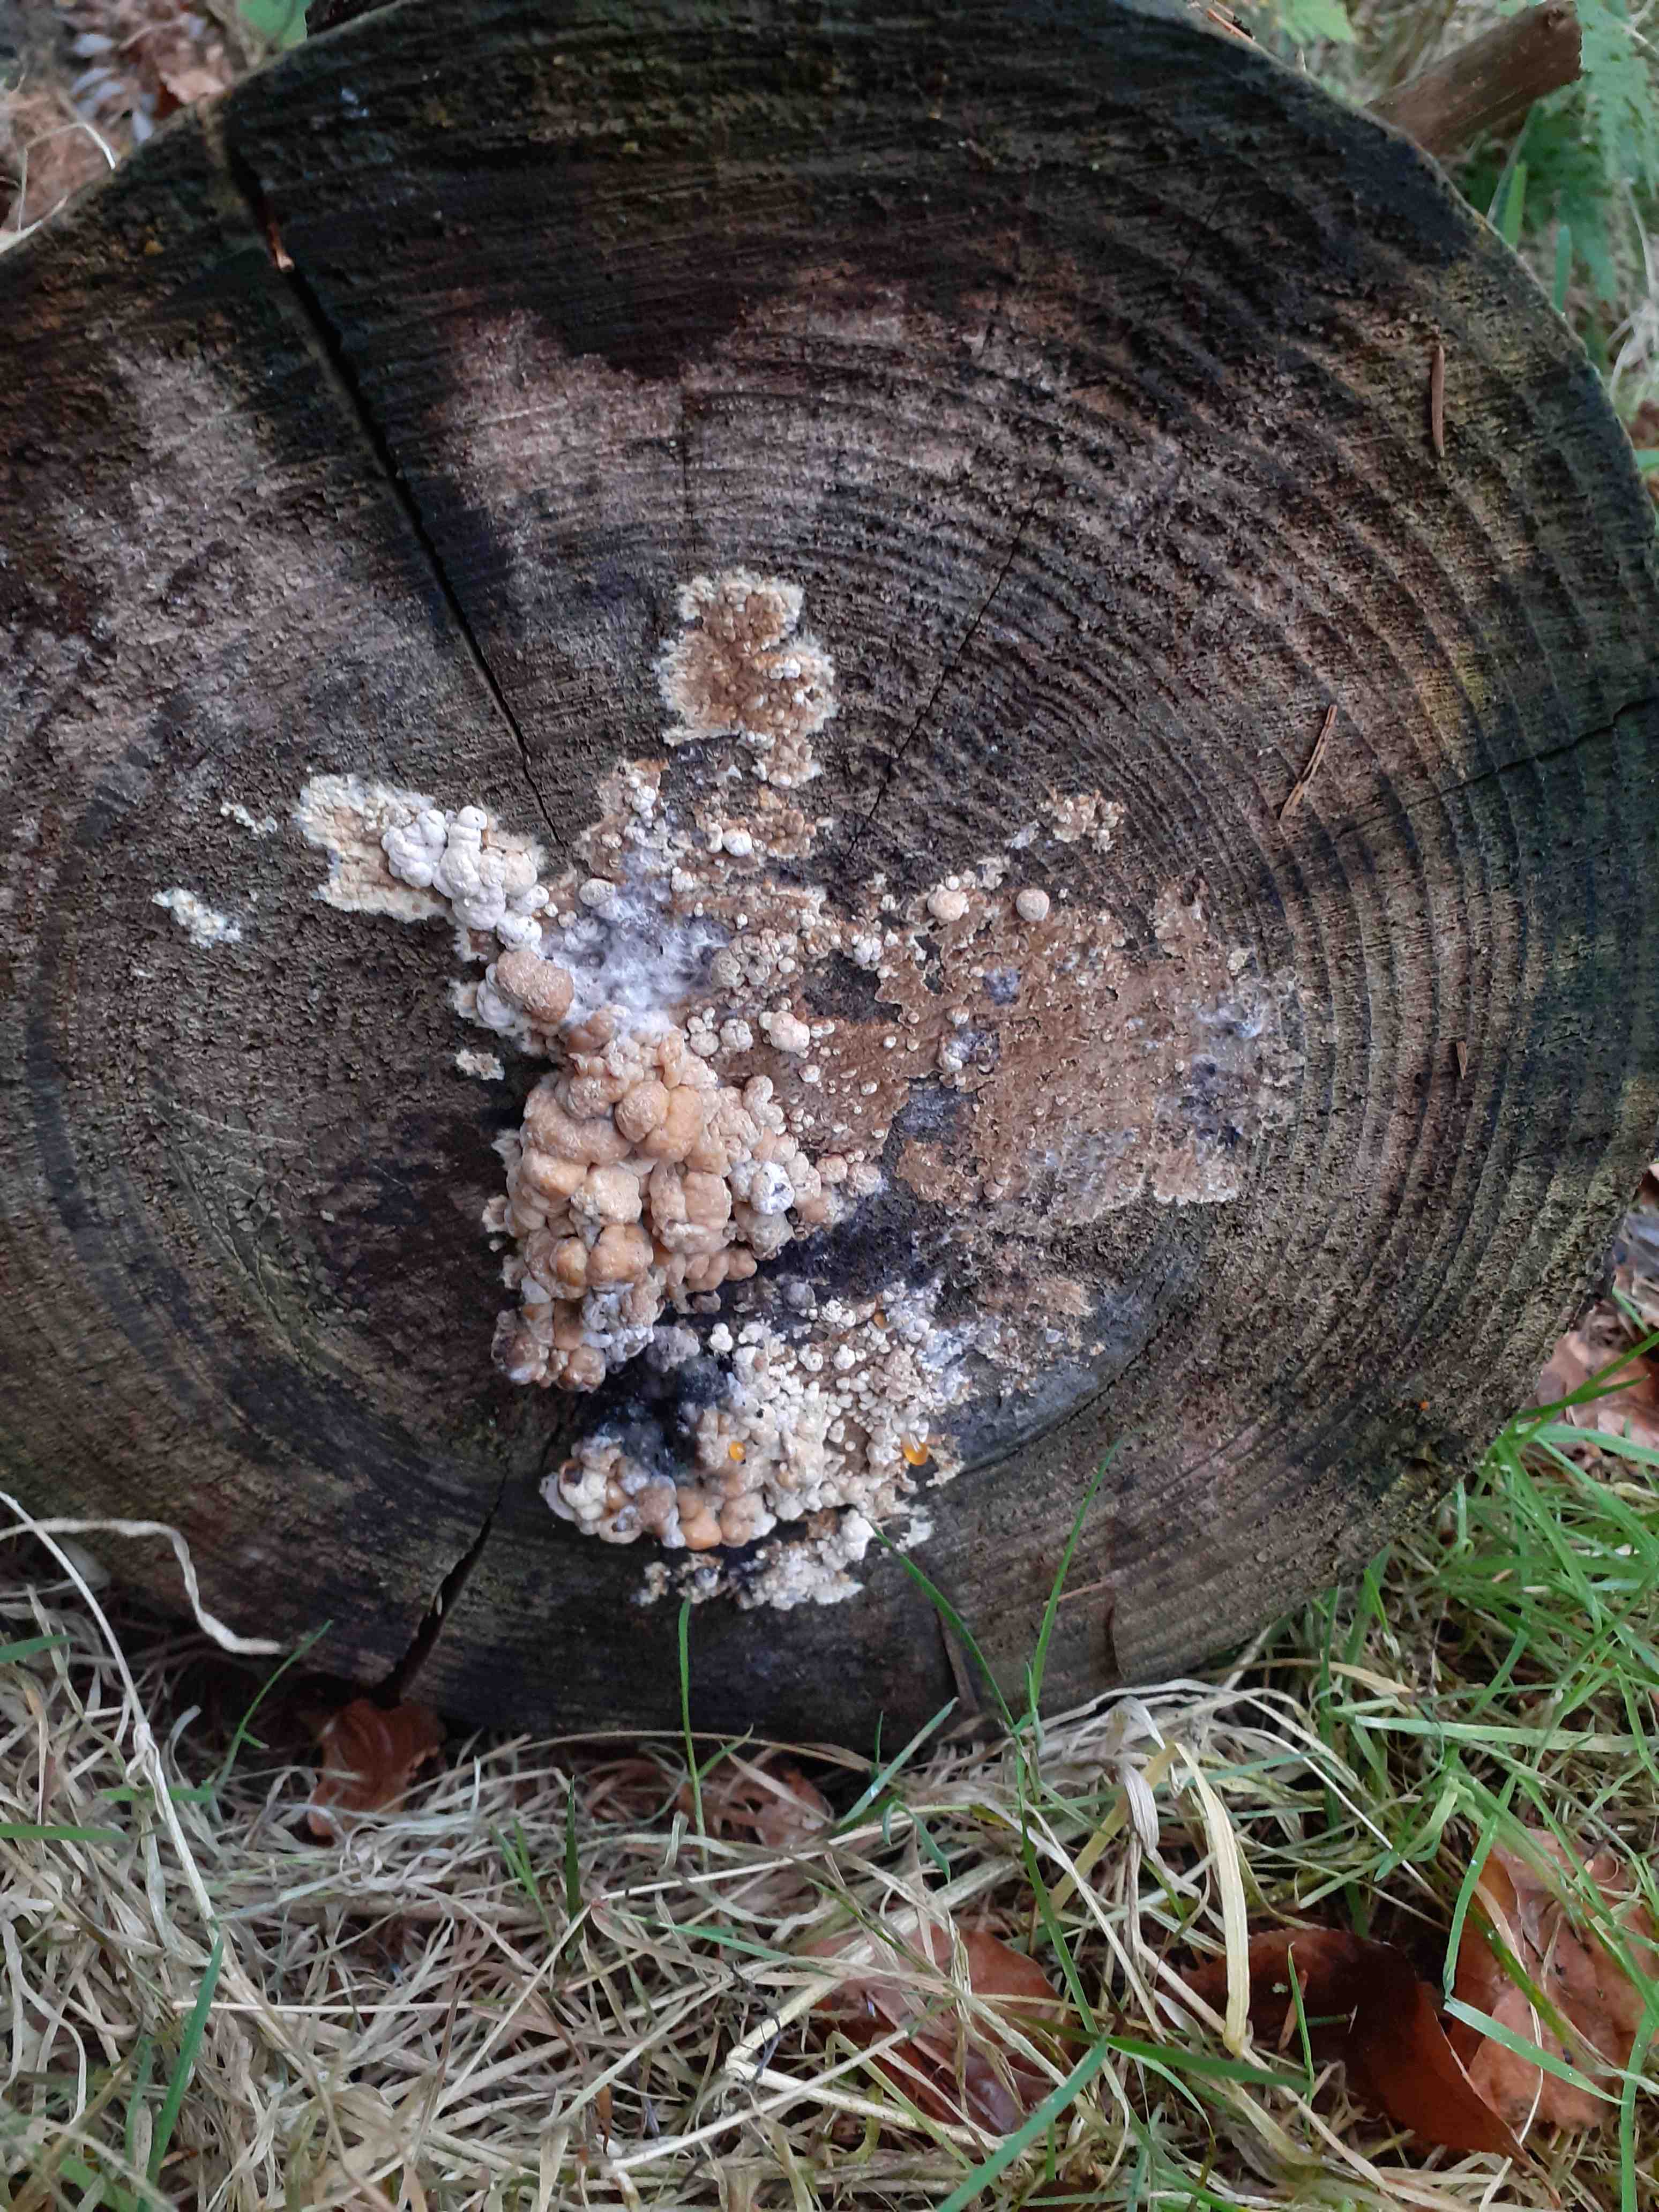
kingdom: Fungi
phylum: Ascomycota
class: Sordariomycetes
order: Xylariales
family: Hypoxylaceae
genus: Nodulisporium
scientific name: Nodulisporium cecidiogenes
